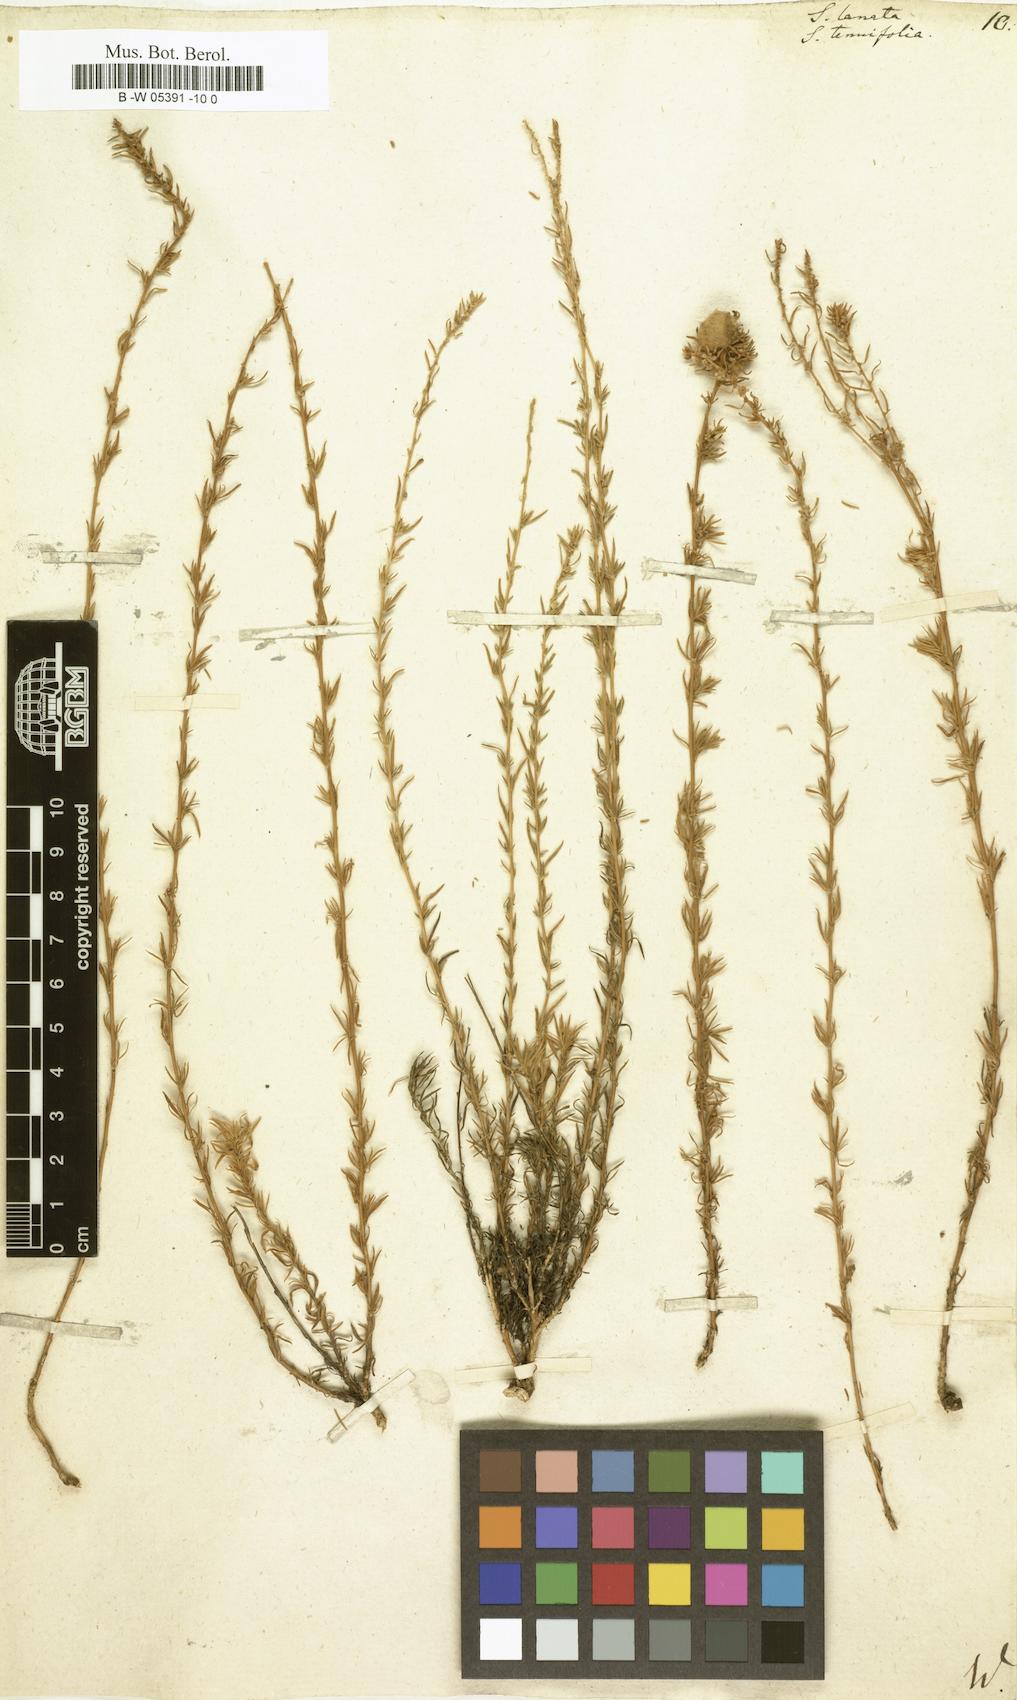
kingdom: Plantae
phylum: Tracheophyta
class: Magnoliopsida
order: Caryophyllales
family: Amaranthaceae
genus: Climacoptera
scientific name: Climacoptera lanata
